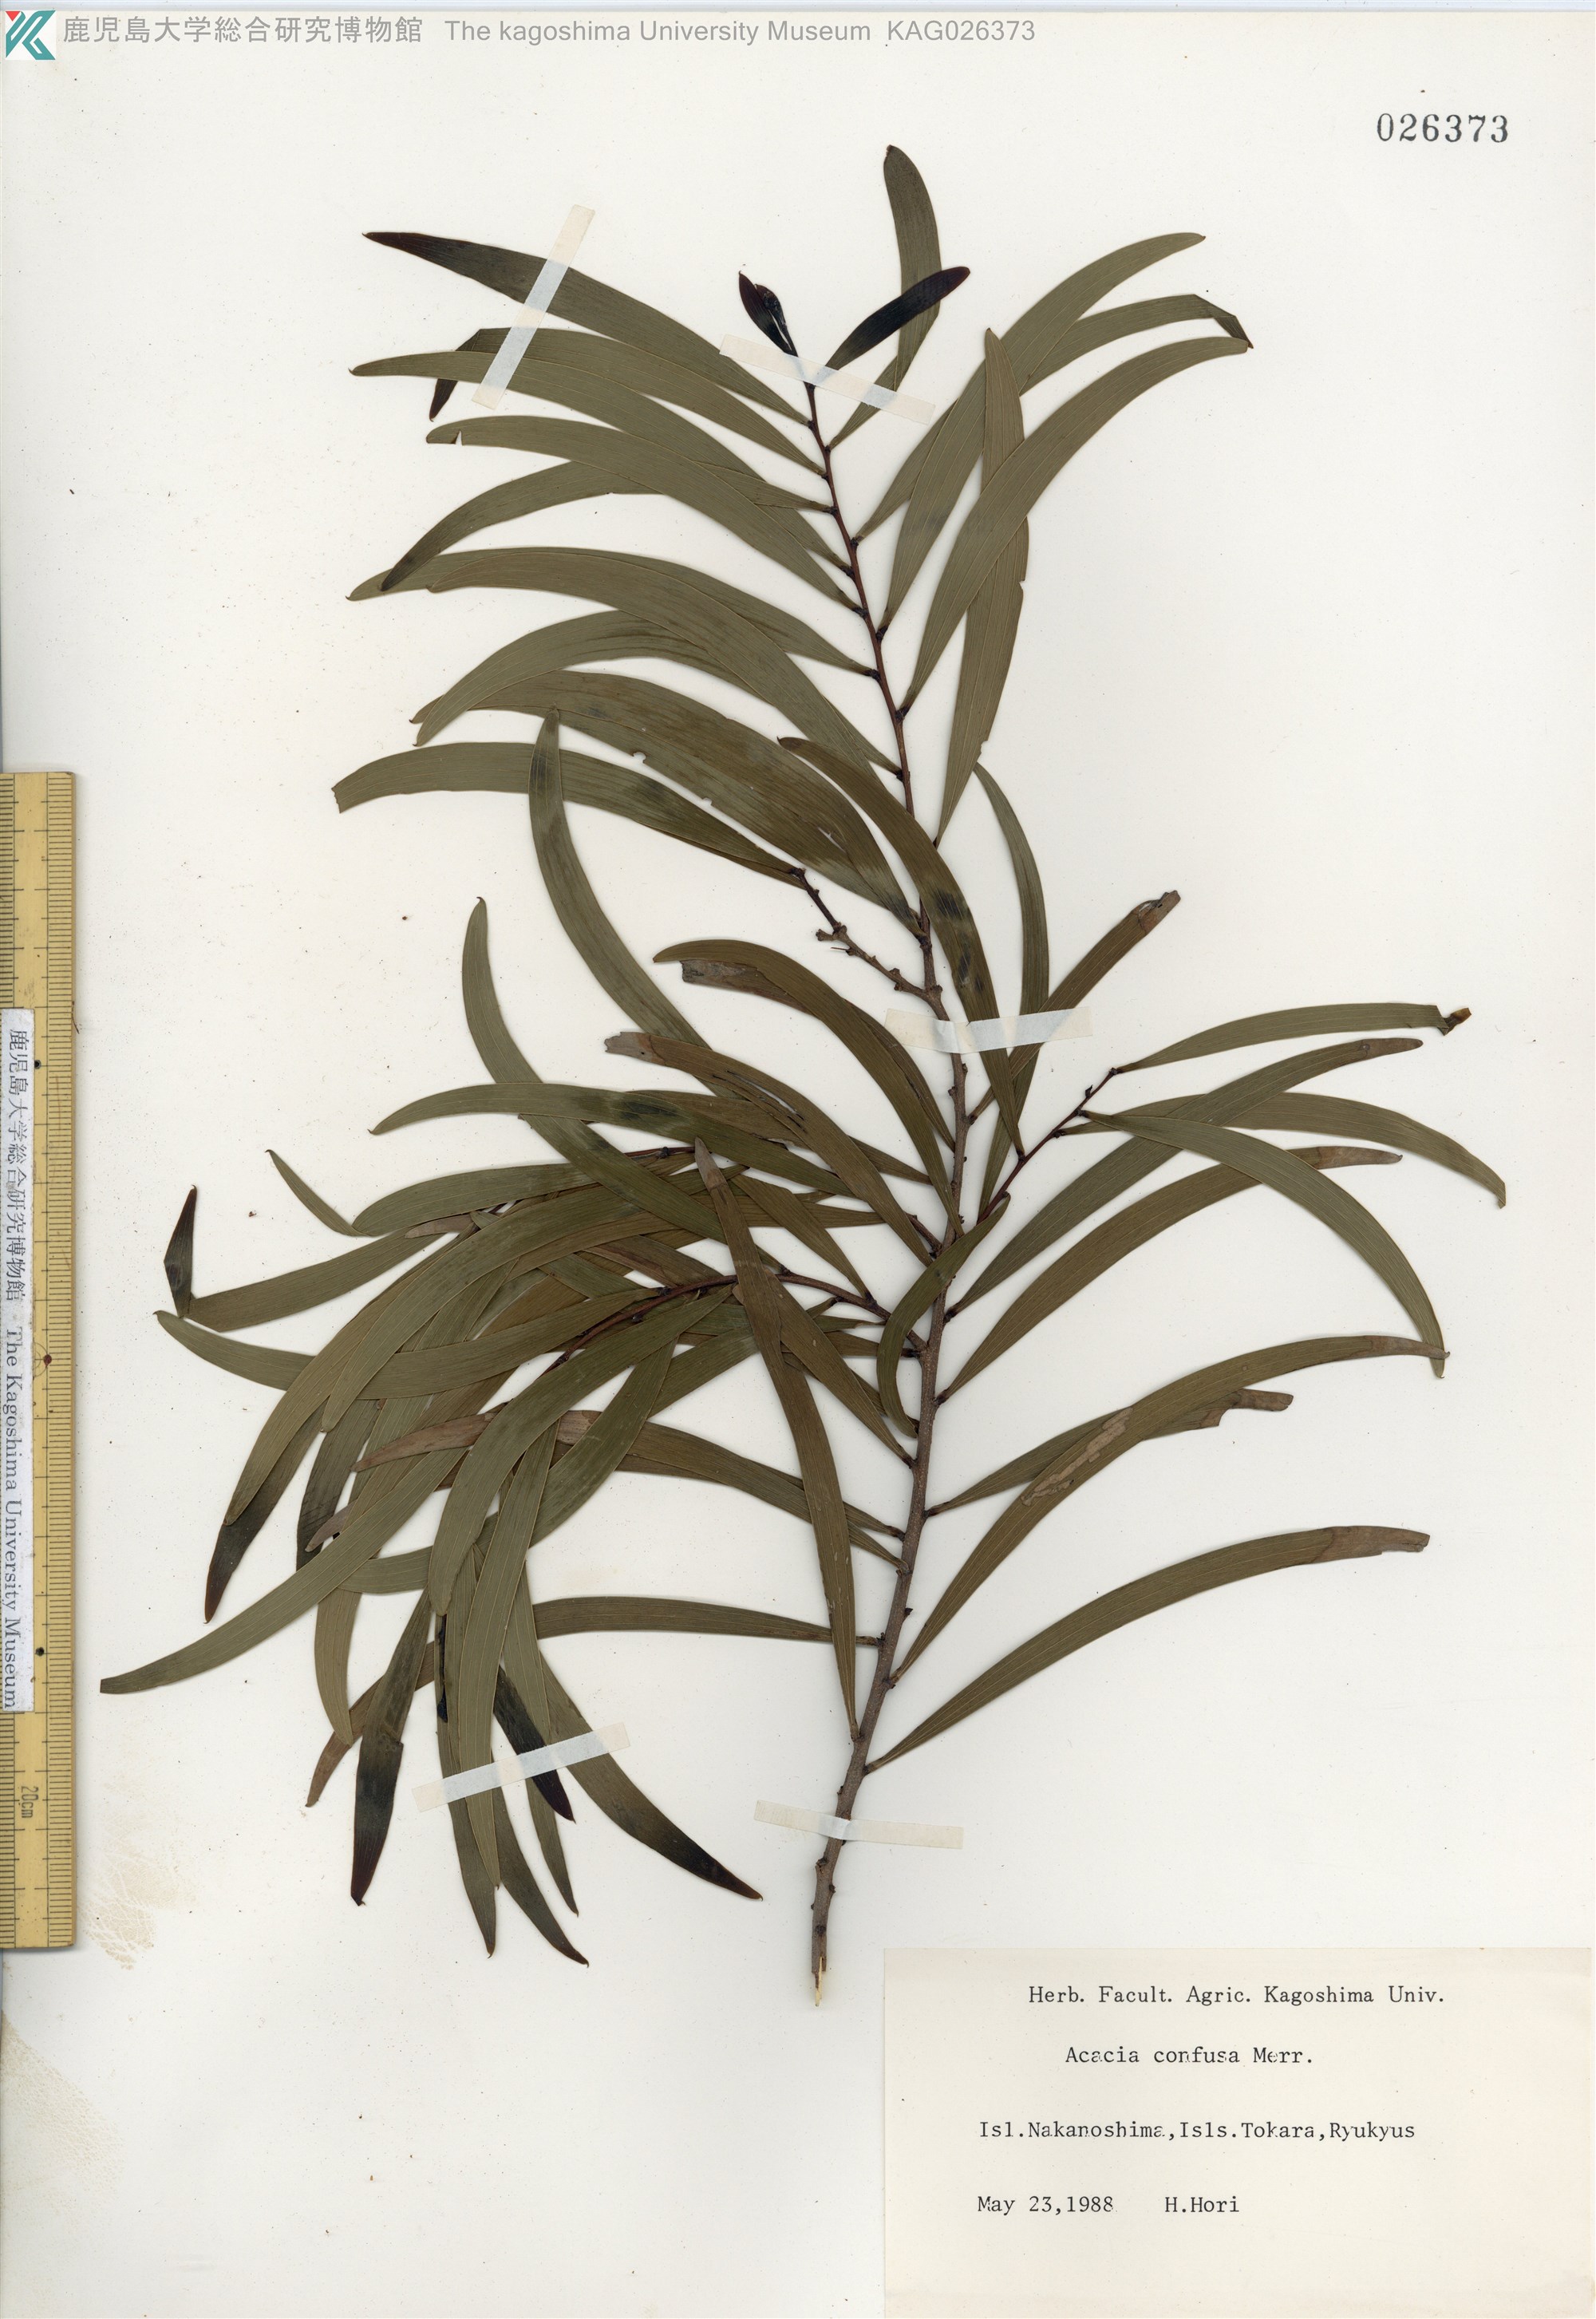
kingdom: Plantae
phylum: Tracheophyta
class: Magnoliopsida
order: Fabales
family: Fabaceae
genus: Acacia
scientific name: Acacia confusa
